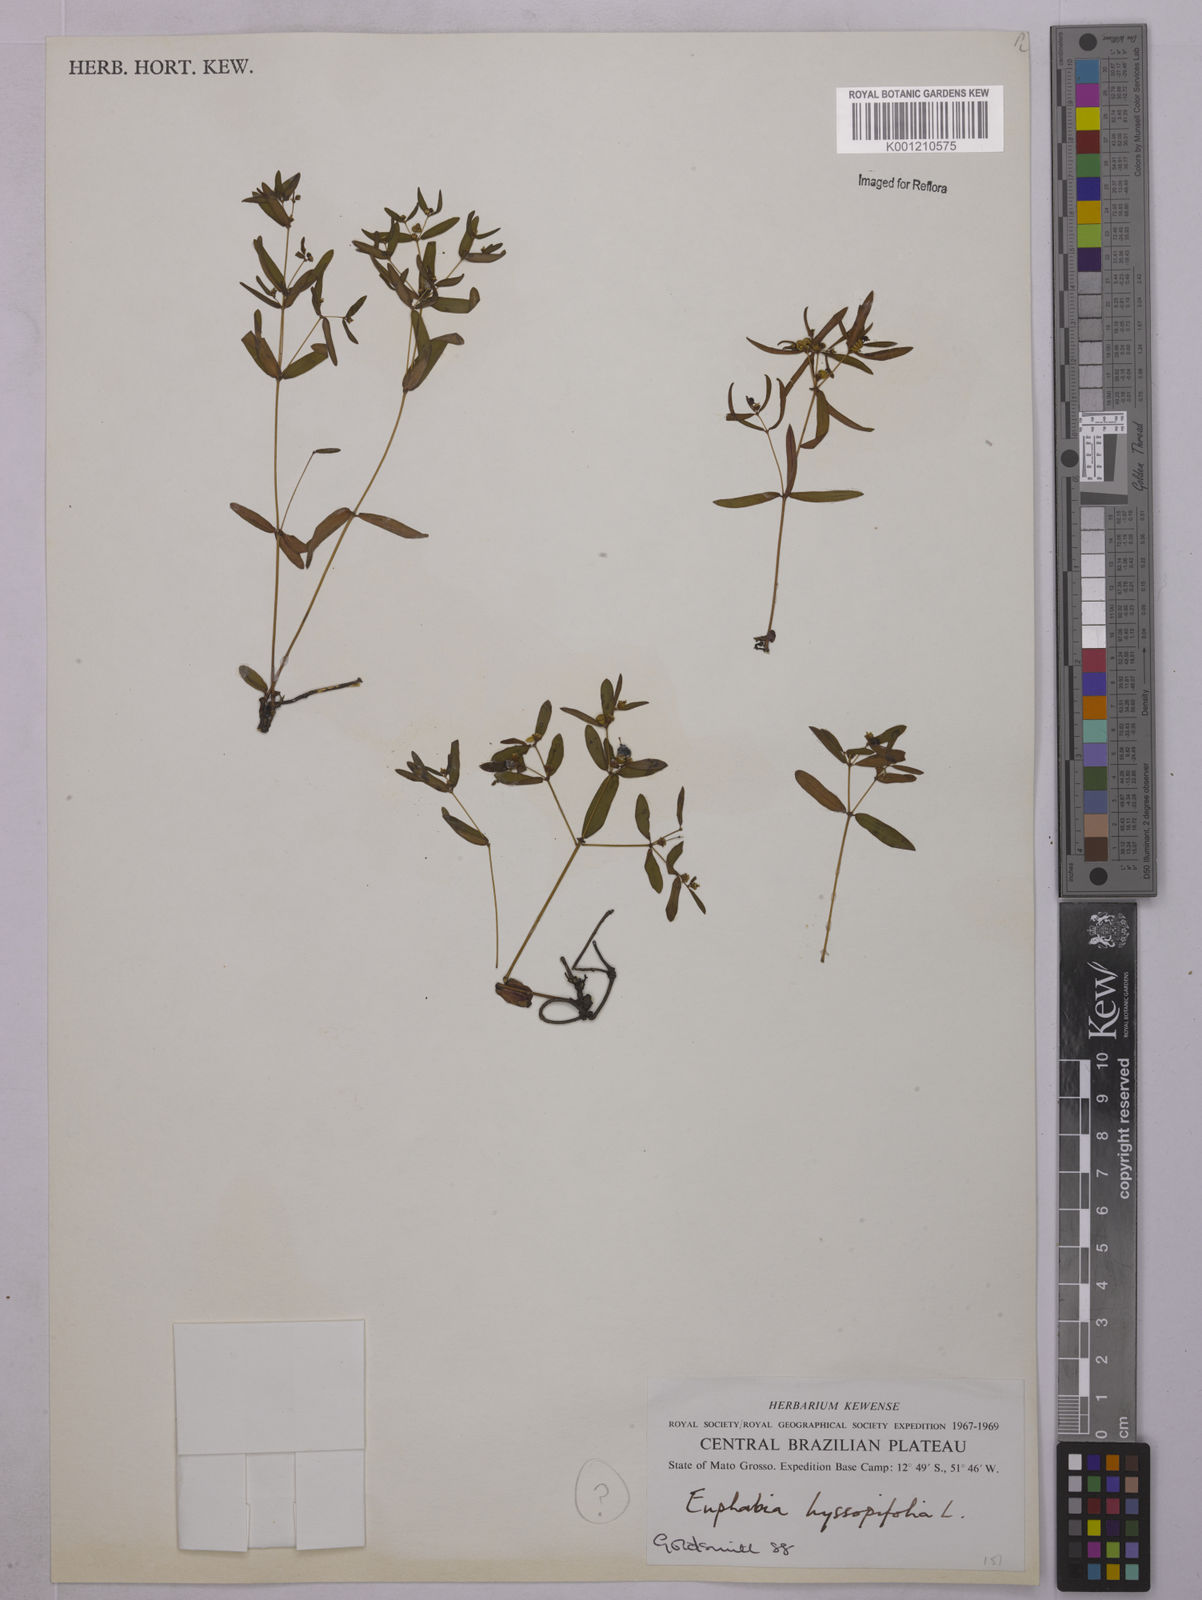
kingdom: Plantae
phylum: Tracheophyta
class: Magnoliopsida
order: Malpighiales
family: Euphorbiaceae
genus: Euphorbia
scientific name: Euphorbia hyssopifolia
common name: Hyssopleaf sandmat
